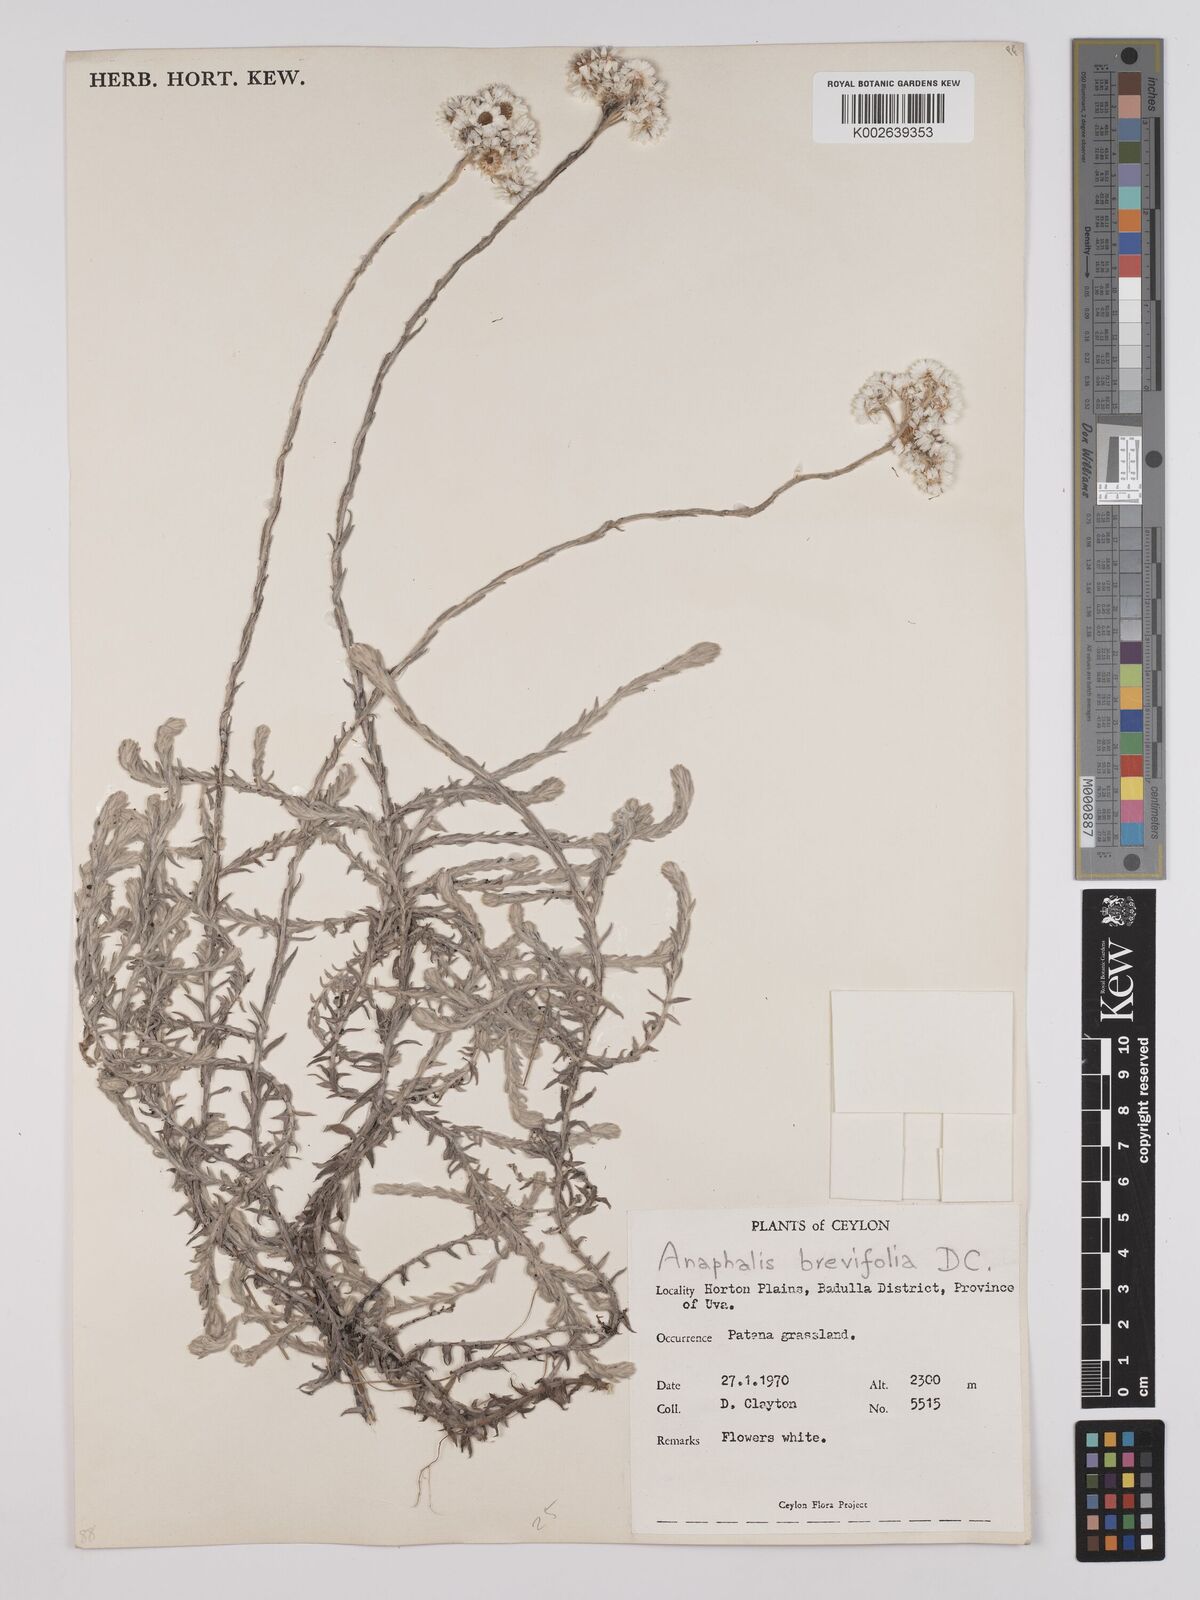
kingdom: Plantae
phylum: Tracheophyta
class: Magnoliopsida
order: Asterales
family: Asteraceae
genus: Anaphalis
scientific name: Anaphalis brevifolia
